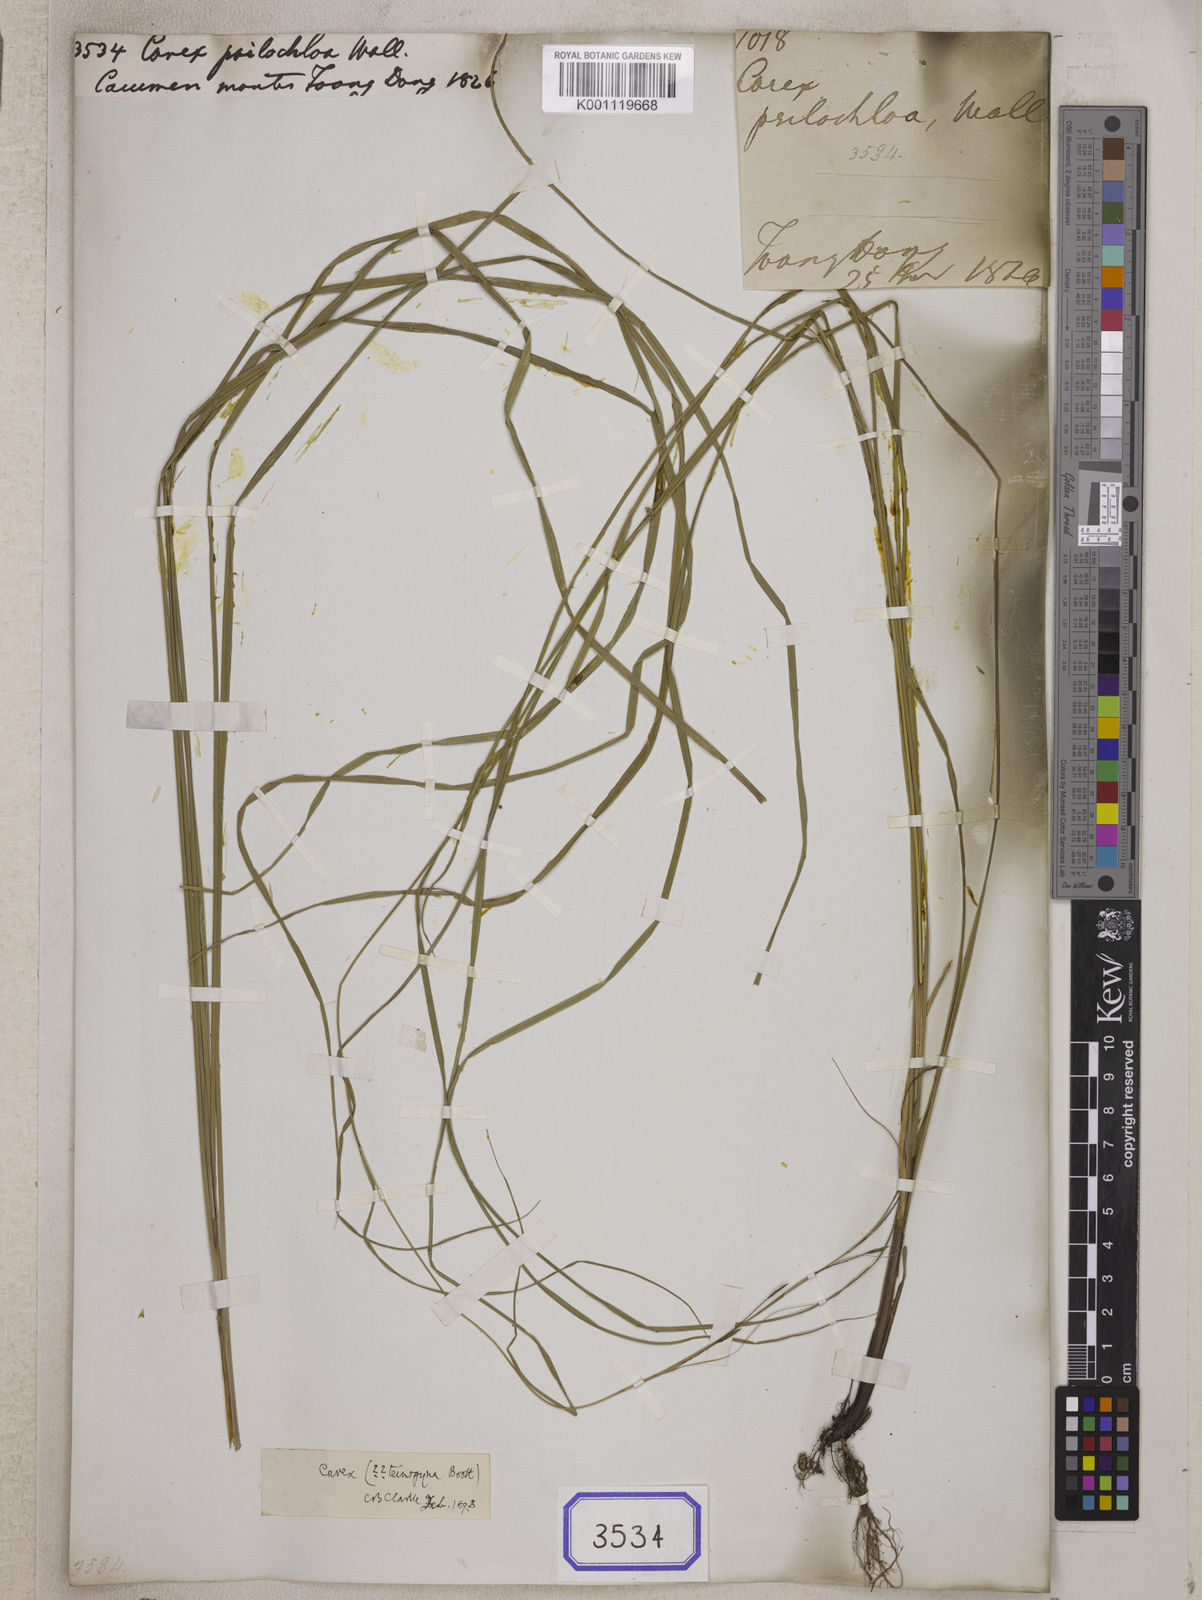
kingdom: Plantae
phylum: Tracheophyta
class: Liliopsida
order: Poales
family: Cyperaceae
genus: Carex
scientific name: Carex psilochloa
